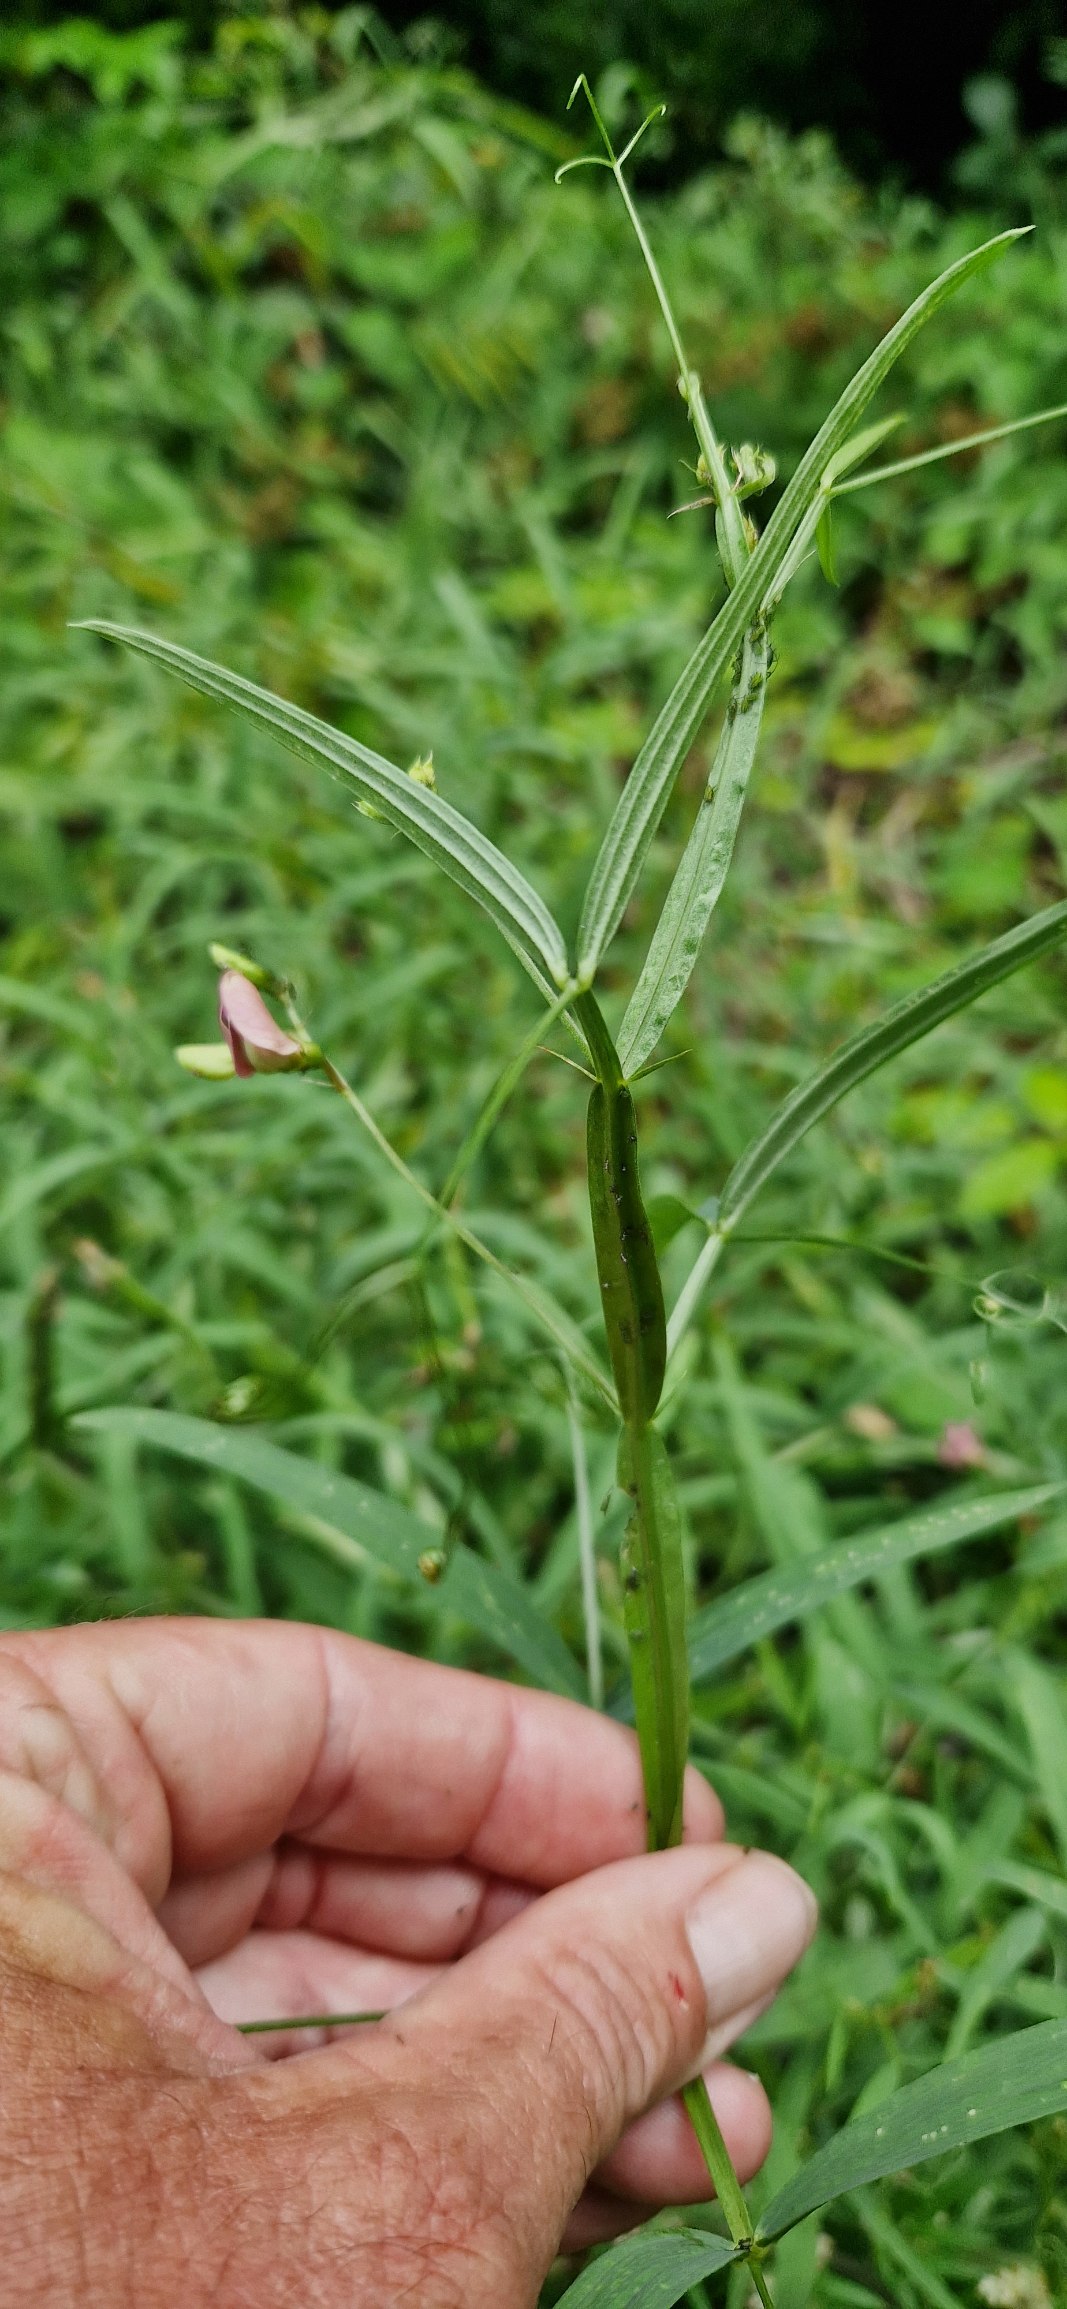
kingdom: Plantae
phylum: Tracheophyta
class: Magnoliopsida
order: Fabales
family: Fabaceae
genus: Lathyrus
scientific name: Lathyrus sylvestris
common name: Skov-fladbælg
